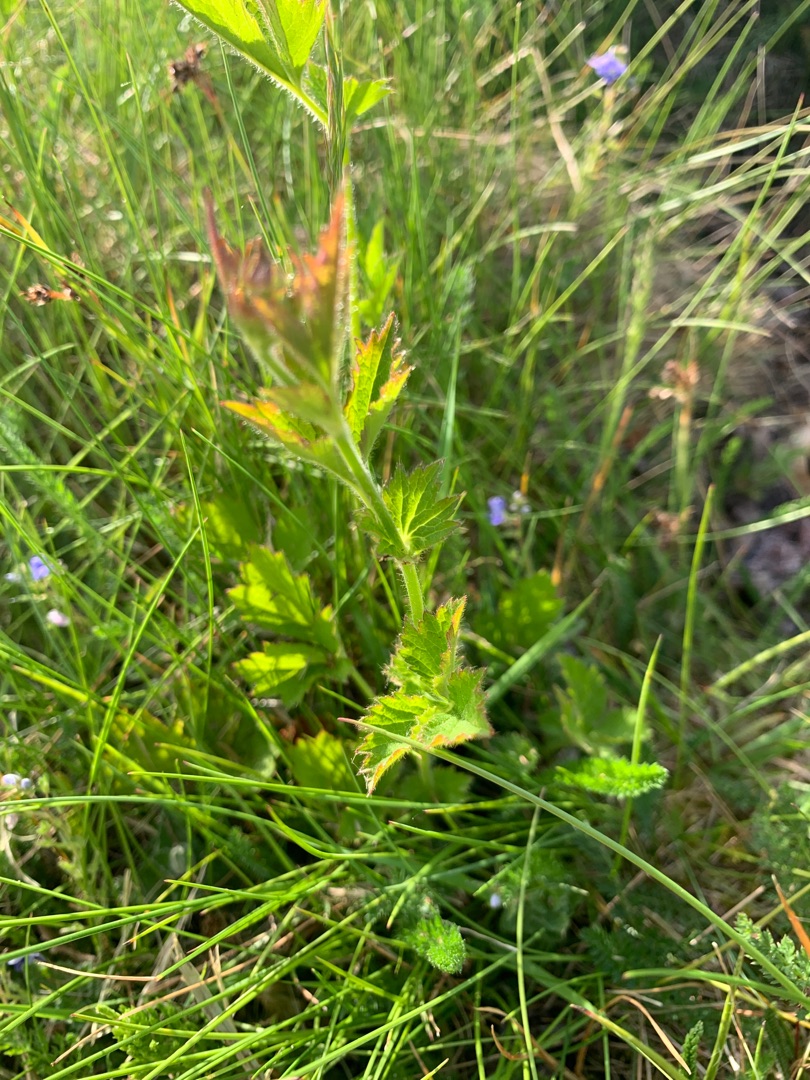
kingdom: Plantae
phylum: Tracheophyta
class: Magnoliopsida
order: Rosales
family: Rosaceae
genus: Geum
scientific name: Geum urbanum
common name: Feber-nellikerod
